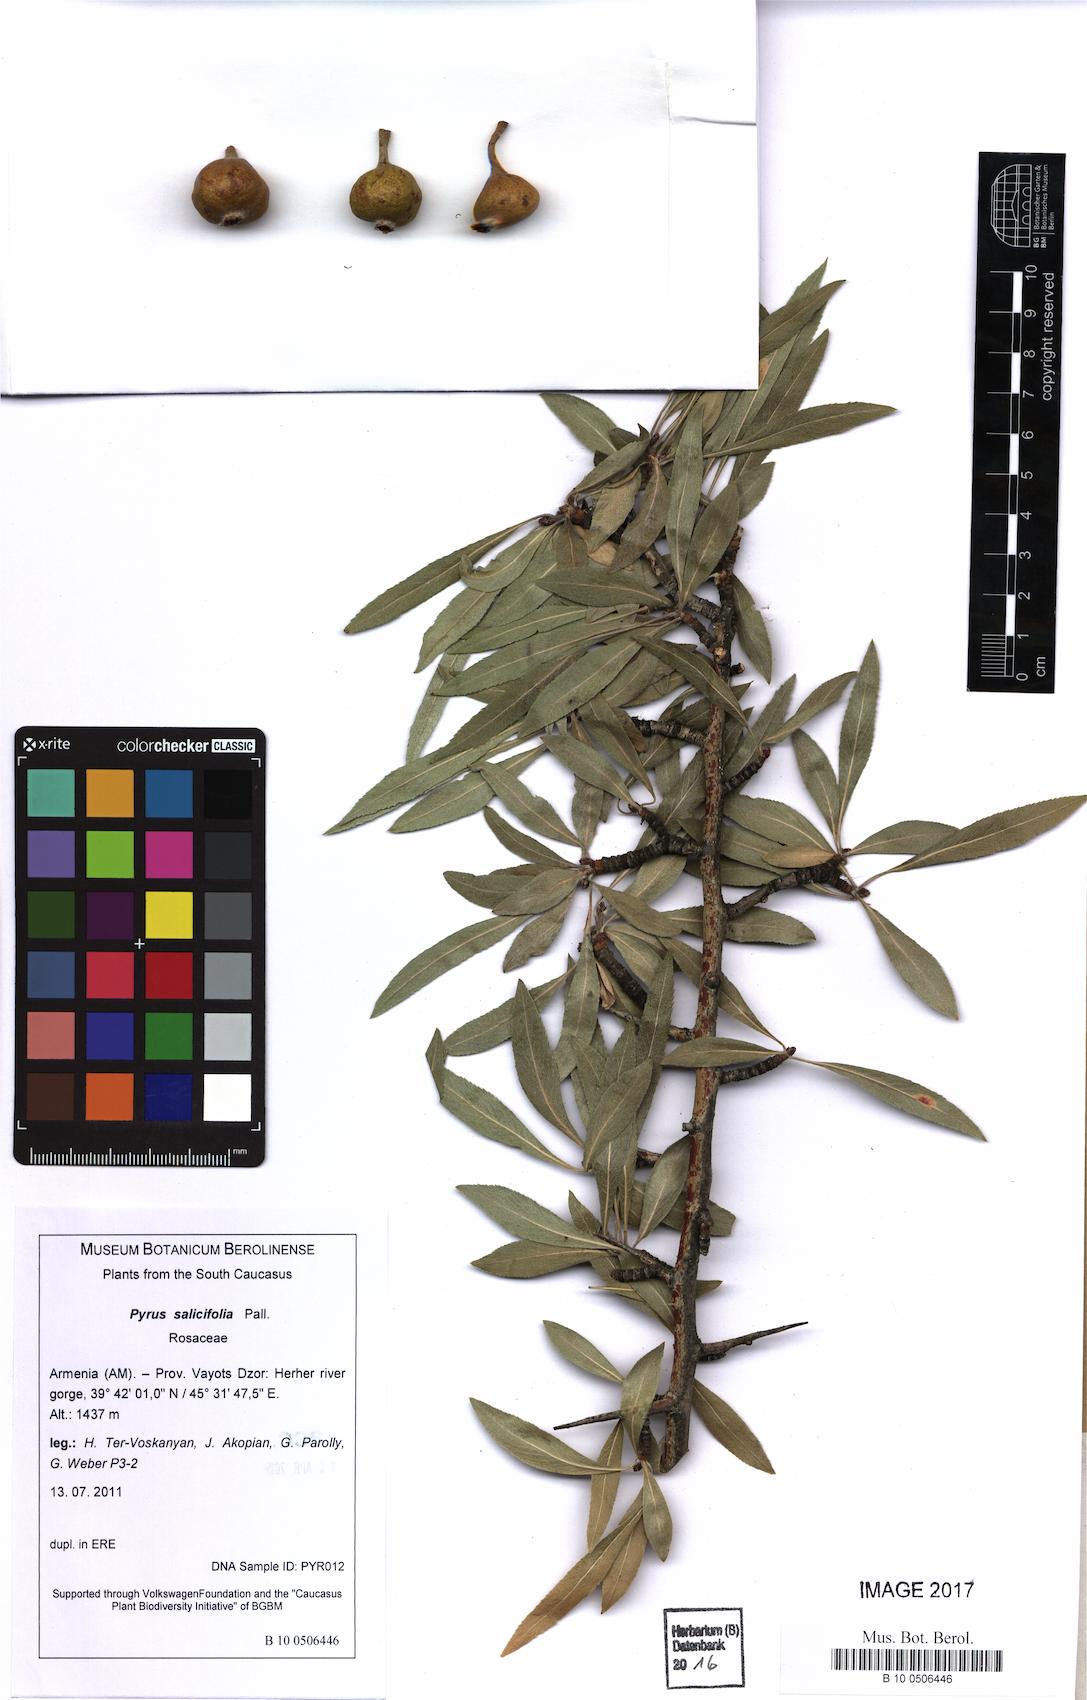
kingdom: Plantae
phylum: Tracheophyta
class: Magnoliopsida
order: Rosales
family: Rosaceae
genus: Pyrus
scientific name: Pyrus salicifolia
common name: Willow-leaved pear
